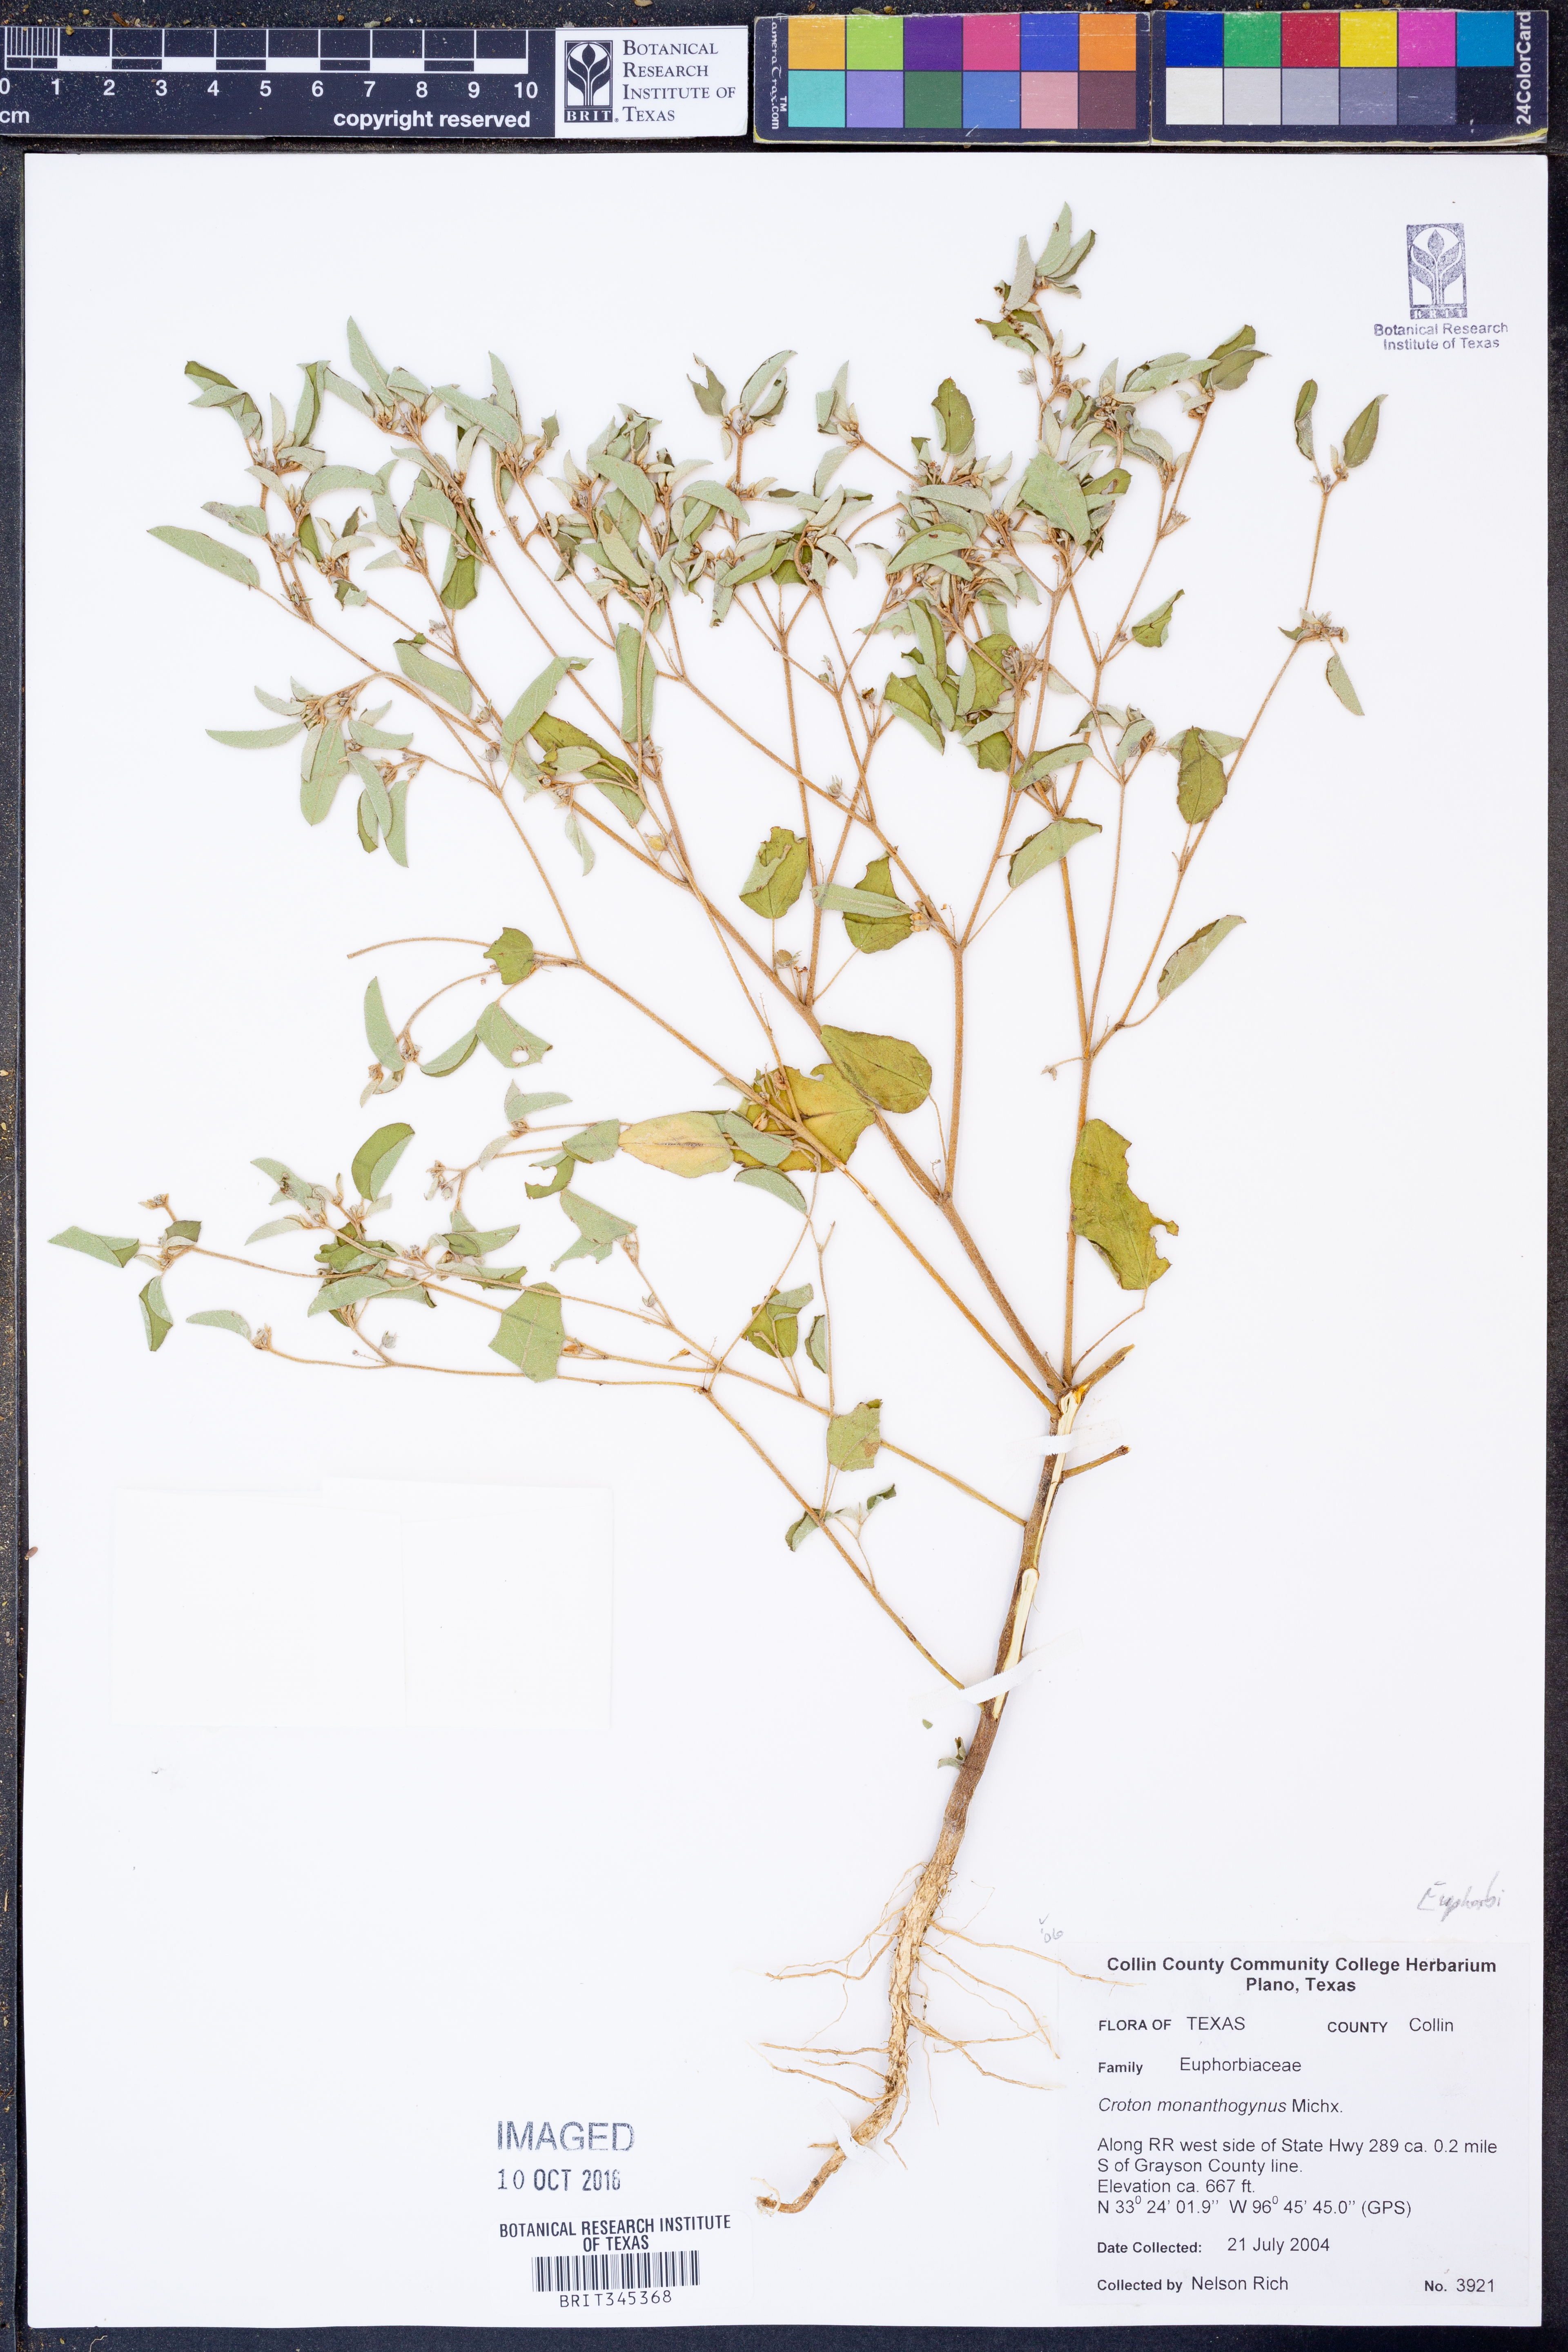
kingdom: Plantae
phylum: Tracheophyta
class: Magnoliopsida
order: Malpighiales
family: Euphorbiaceae
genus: Croton
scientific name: Croton monanthogynus
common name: One-seed croton
